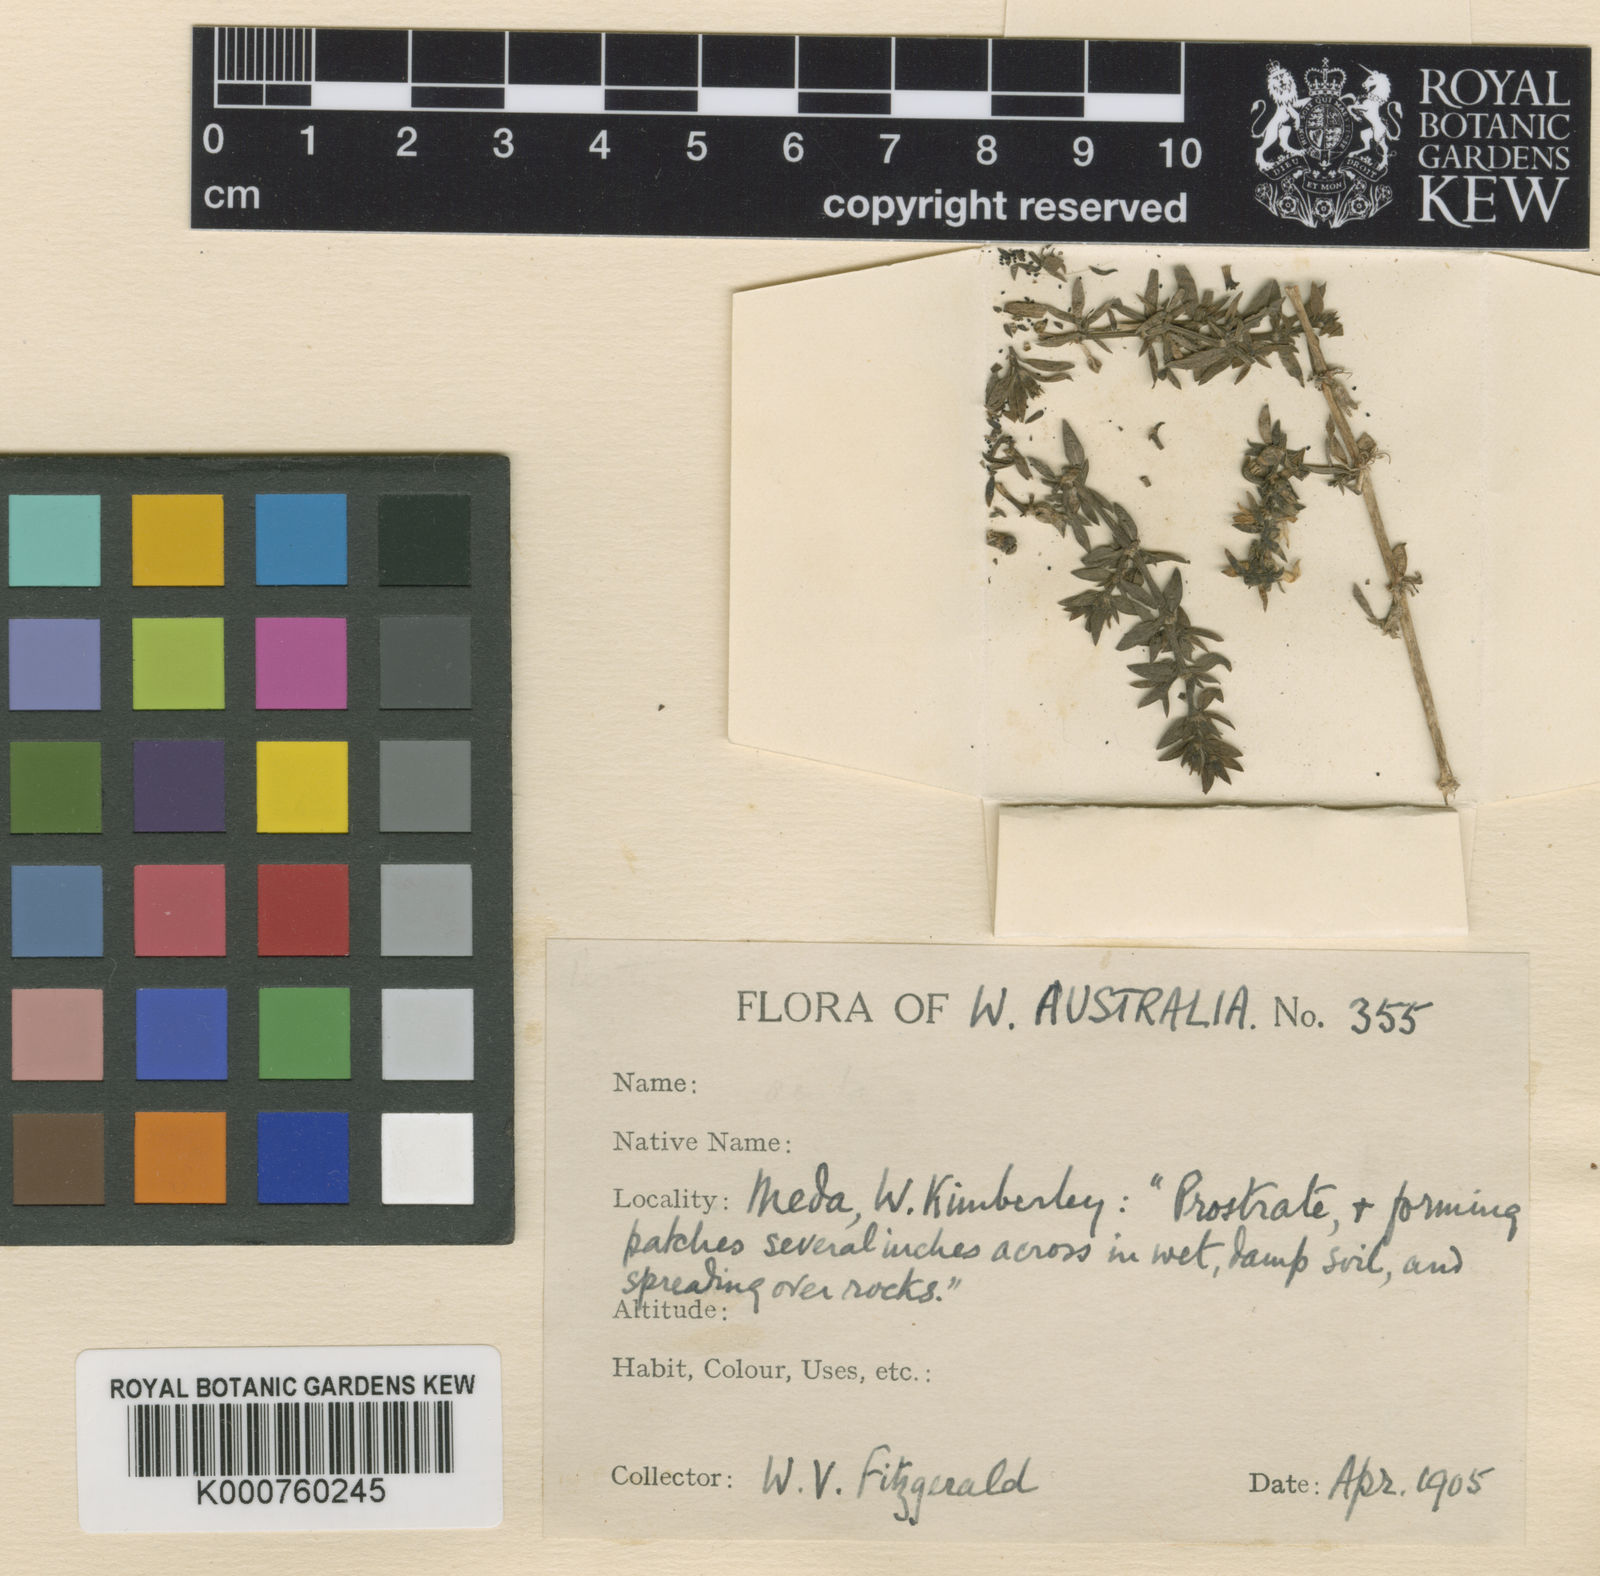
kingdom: Plantae
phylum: Tracheophyta
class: Magnoliopsida
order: Gentianales
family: Rubiaceae
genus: Dentella
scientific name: Dentella misera
